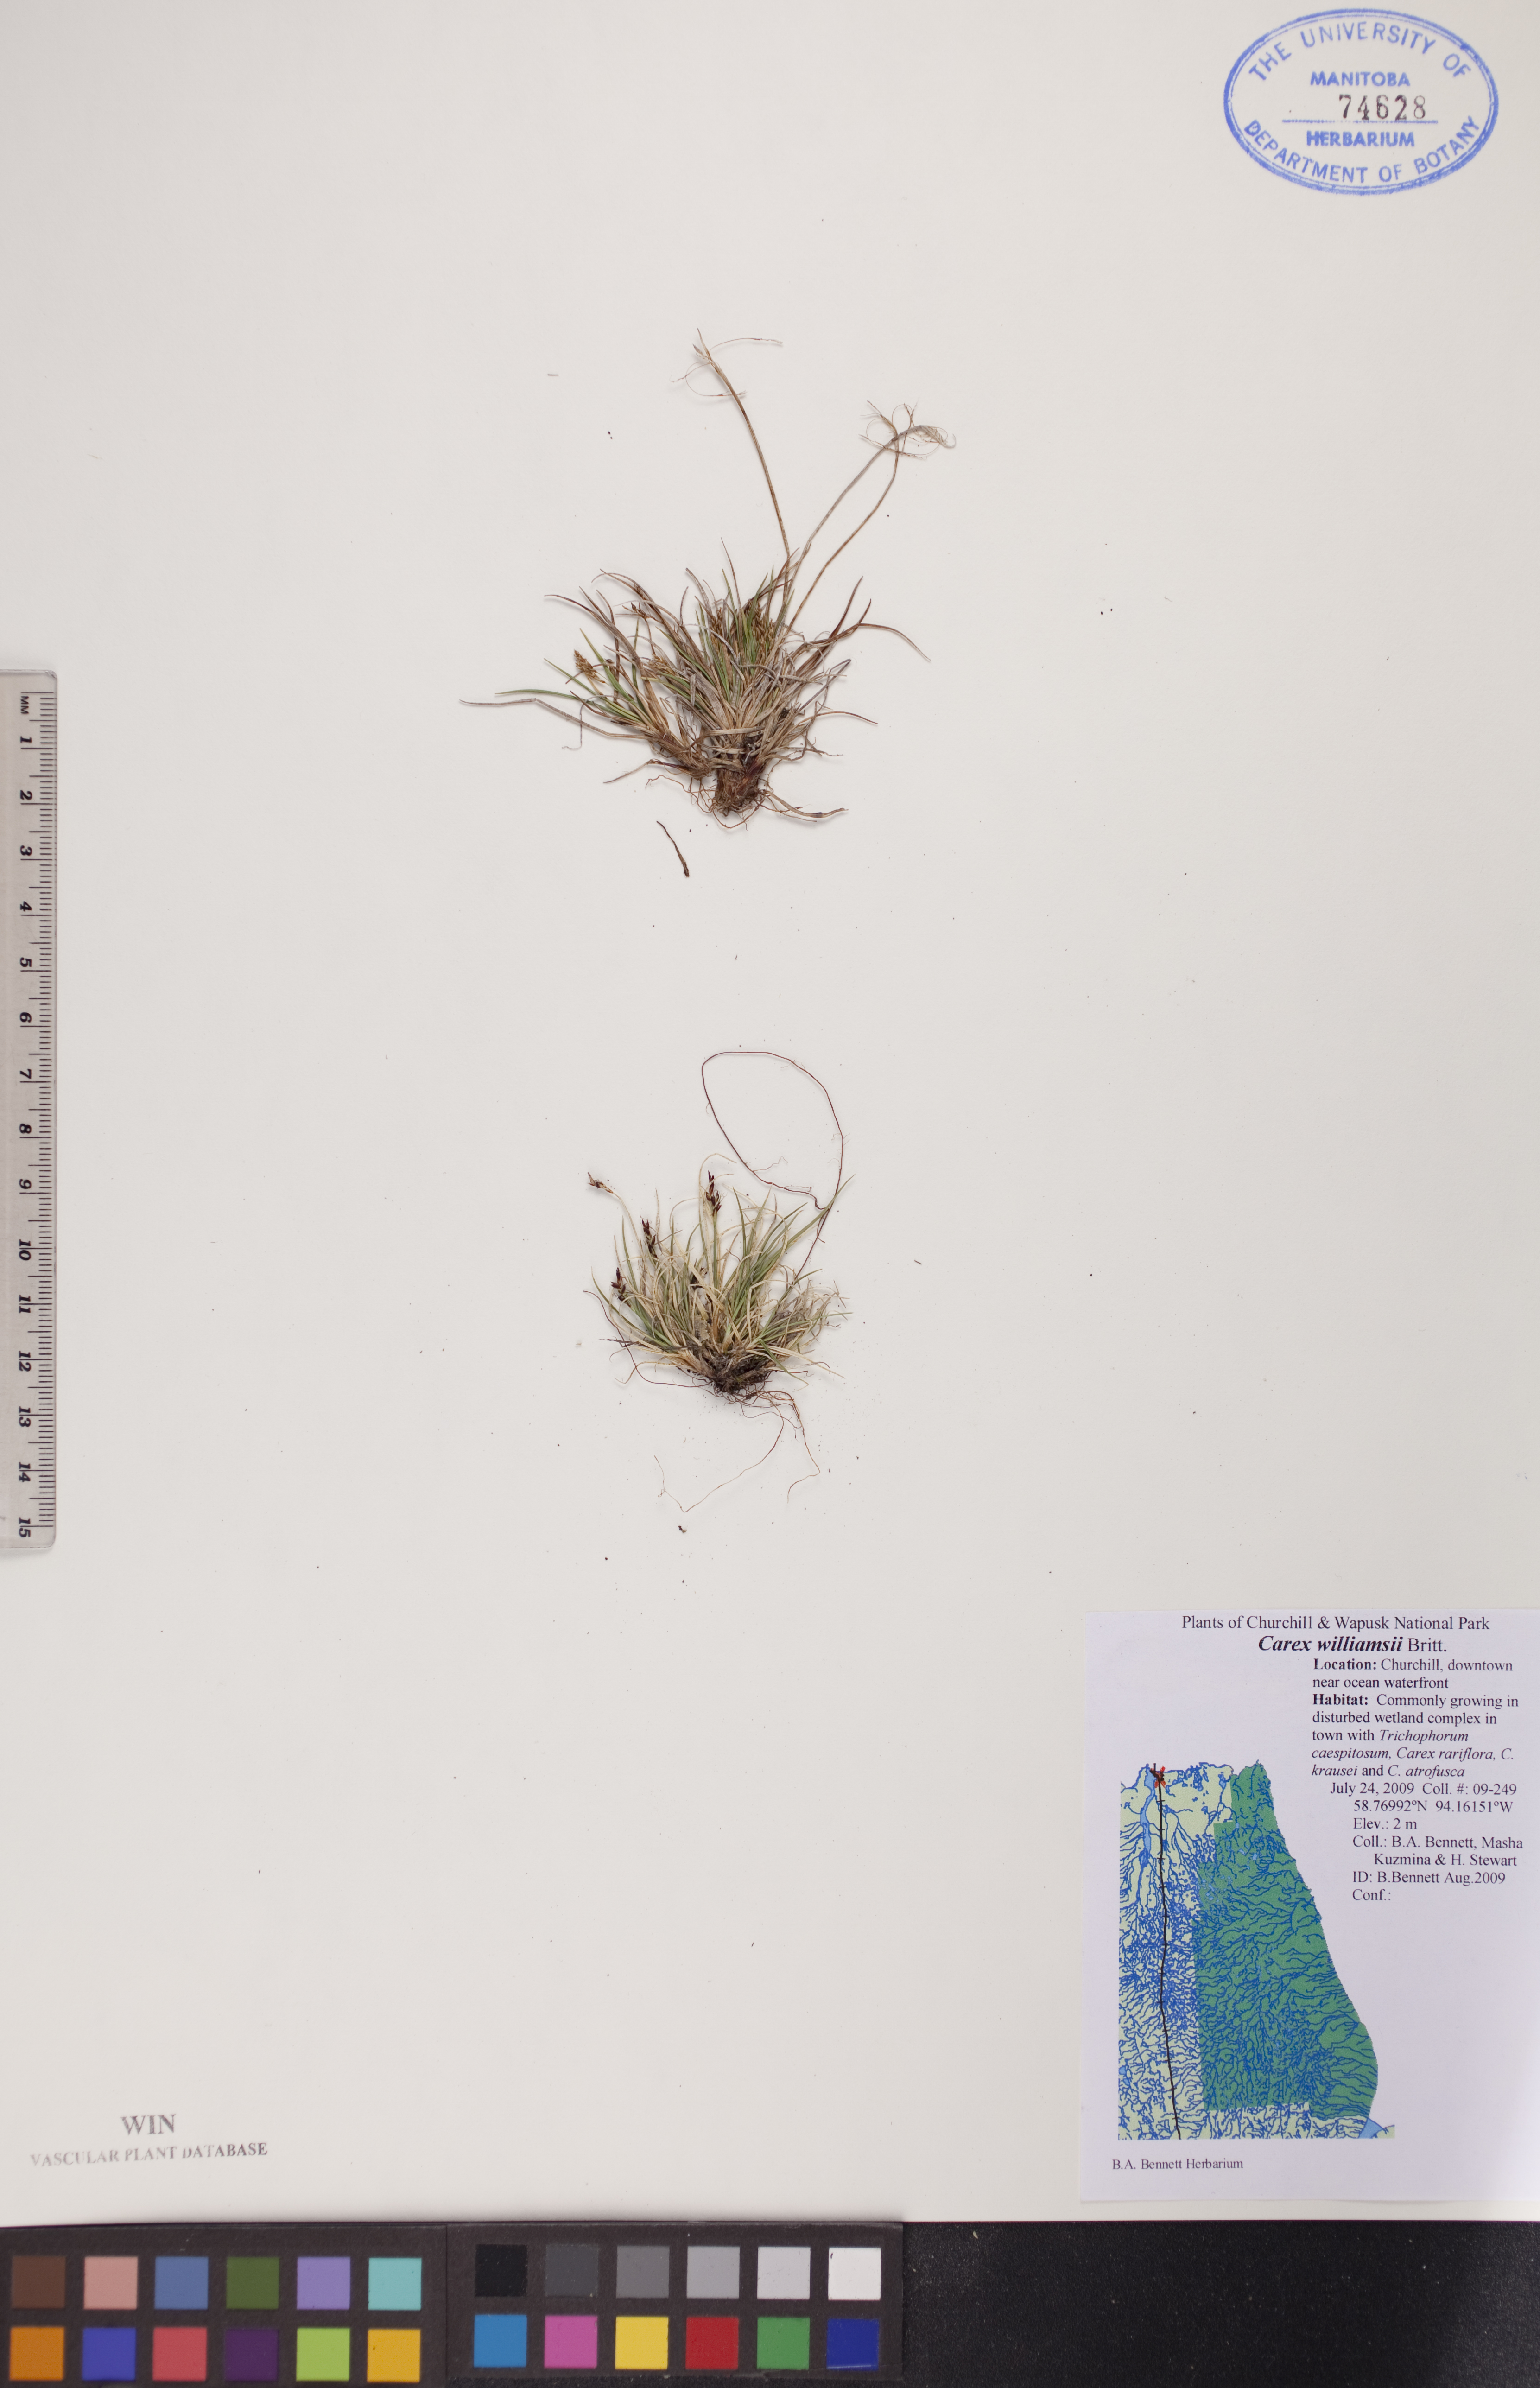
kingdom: Plantae
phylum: Tracheophyta
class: Liliopsida
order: Poales
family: Cyperaceae
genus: Carex
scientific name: Carex williamsii
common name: Williams' sedge
